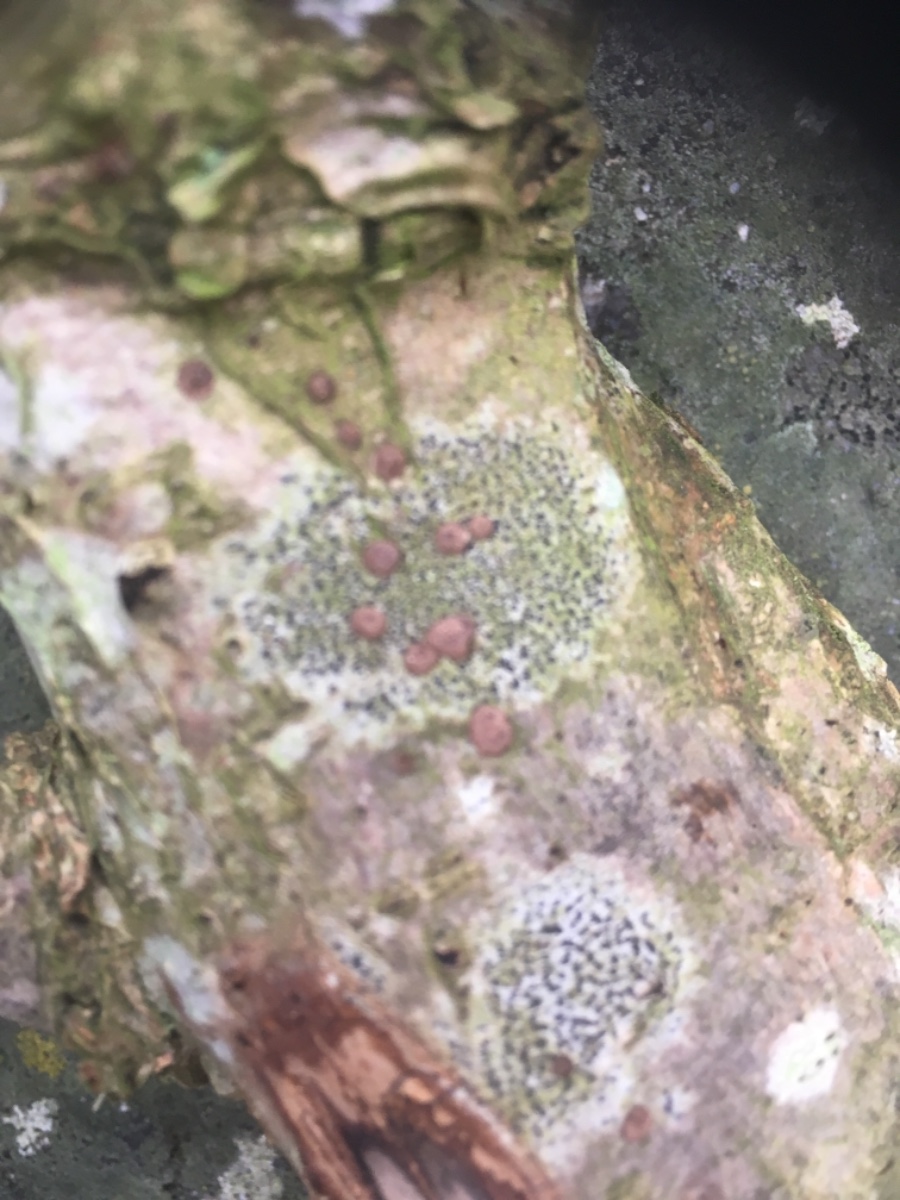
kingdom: Fungi
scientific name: Fungi
